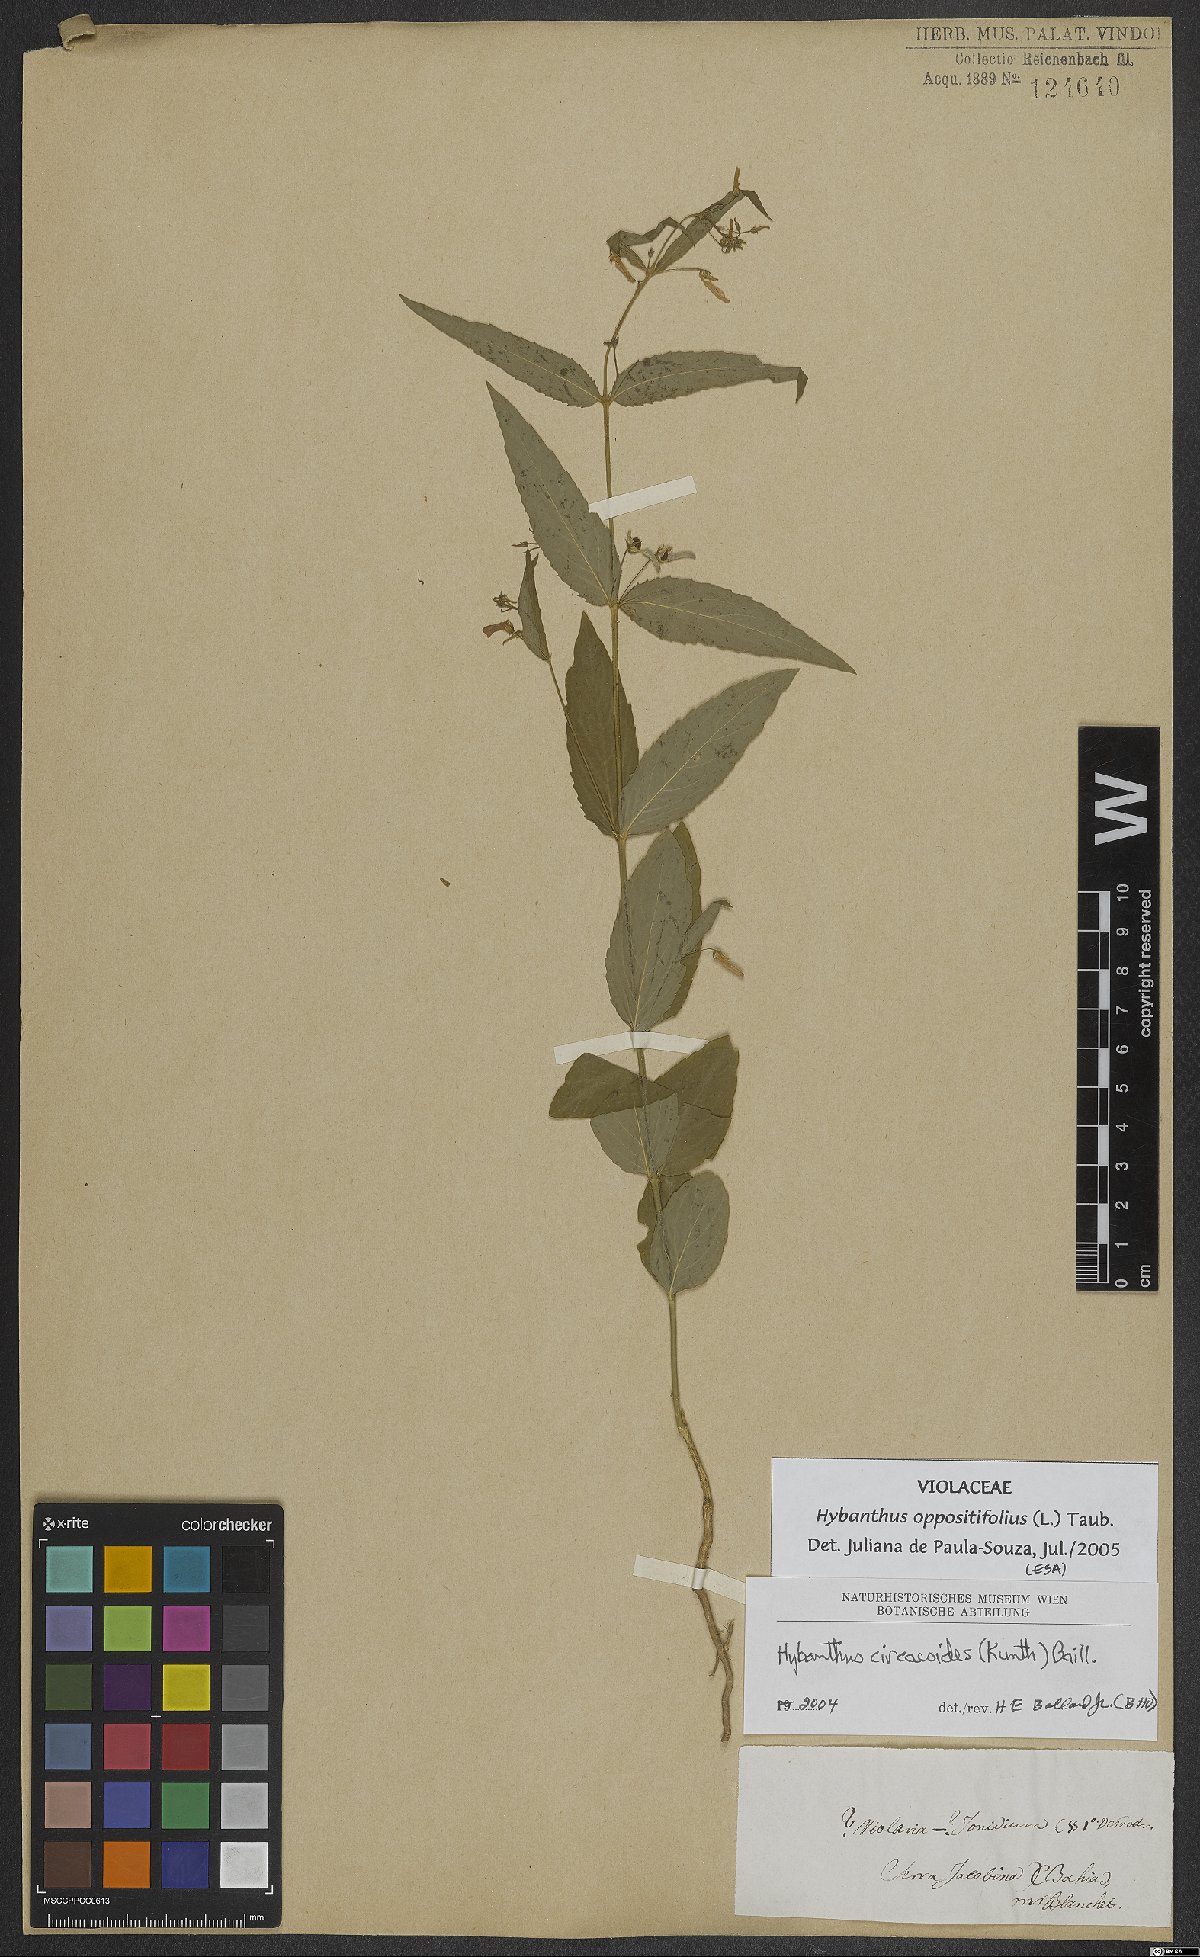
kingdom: Plantae
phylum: Tracheophyta
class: Magnoliopsida
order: Malpighiales
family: Violaceae
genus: Pombalia
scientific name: Pombalia oppositifolia
